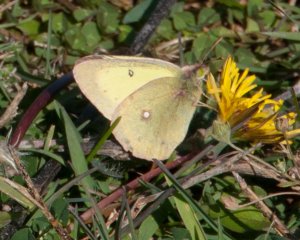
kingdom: Animalia
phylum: Arthropoda
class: Insecta
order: Lepidoptera
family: Pieridae
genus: Colias
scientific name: Colias philodice
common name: Clouded Sulphur
